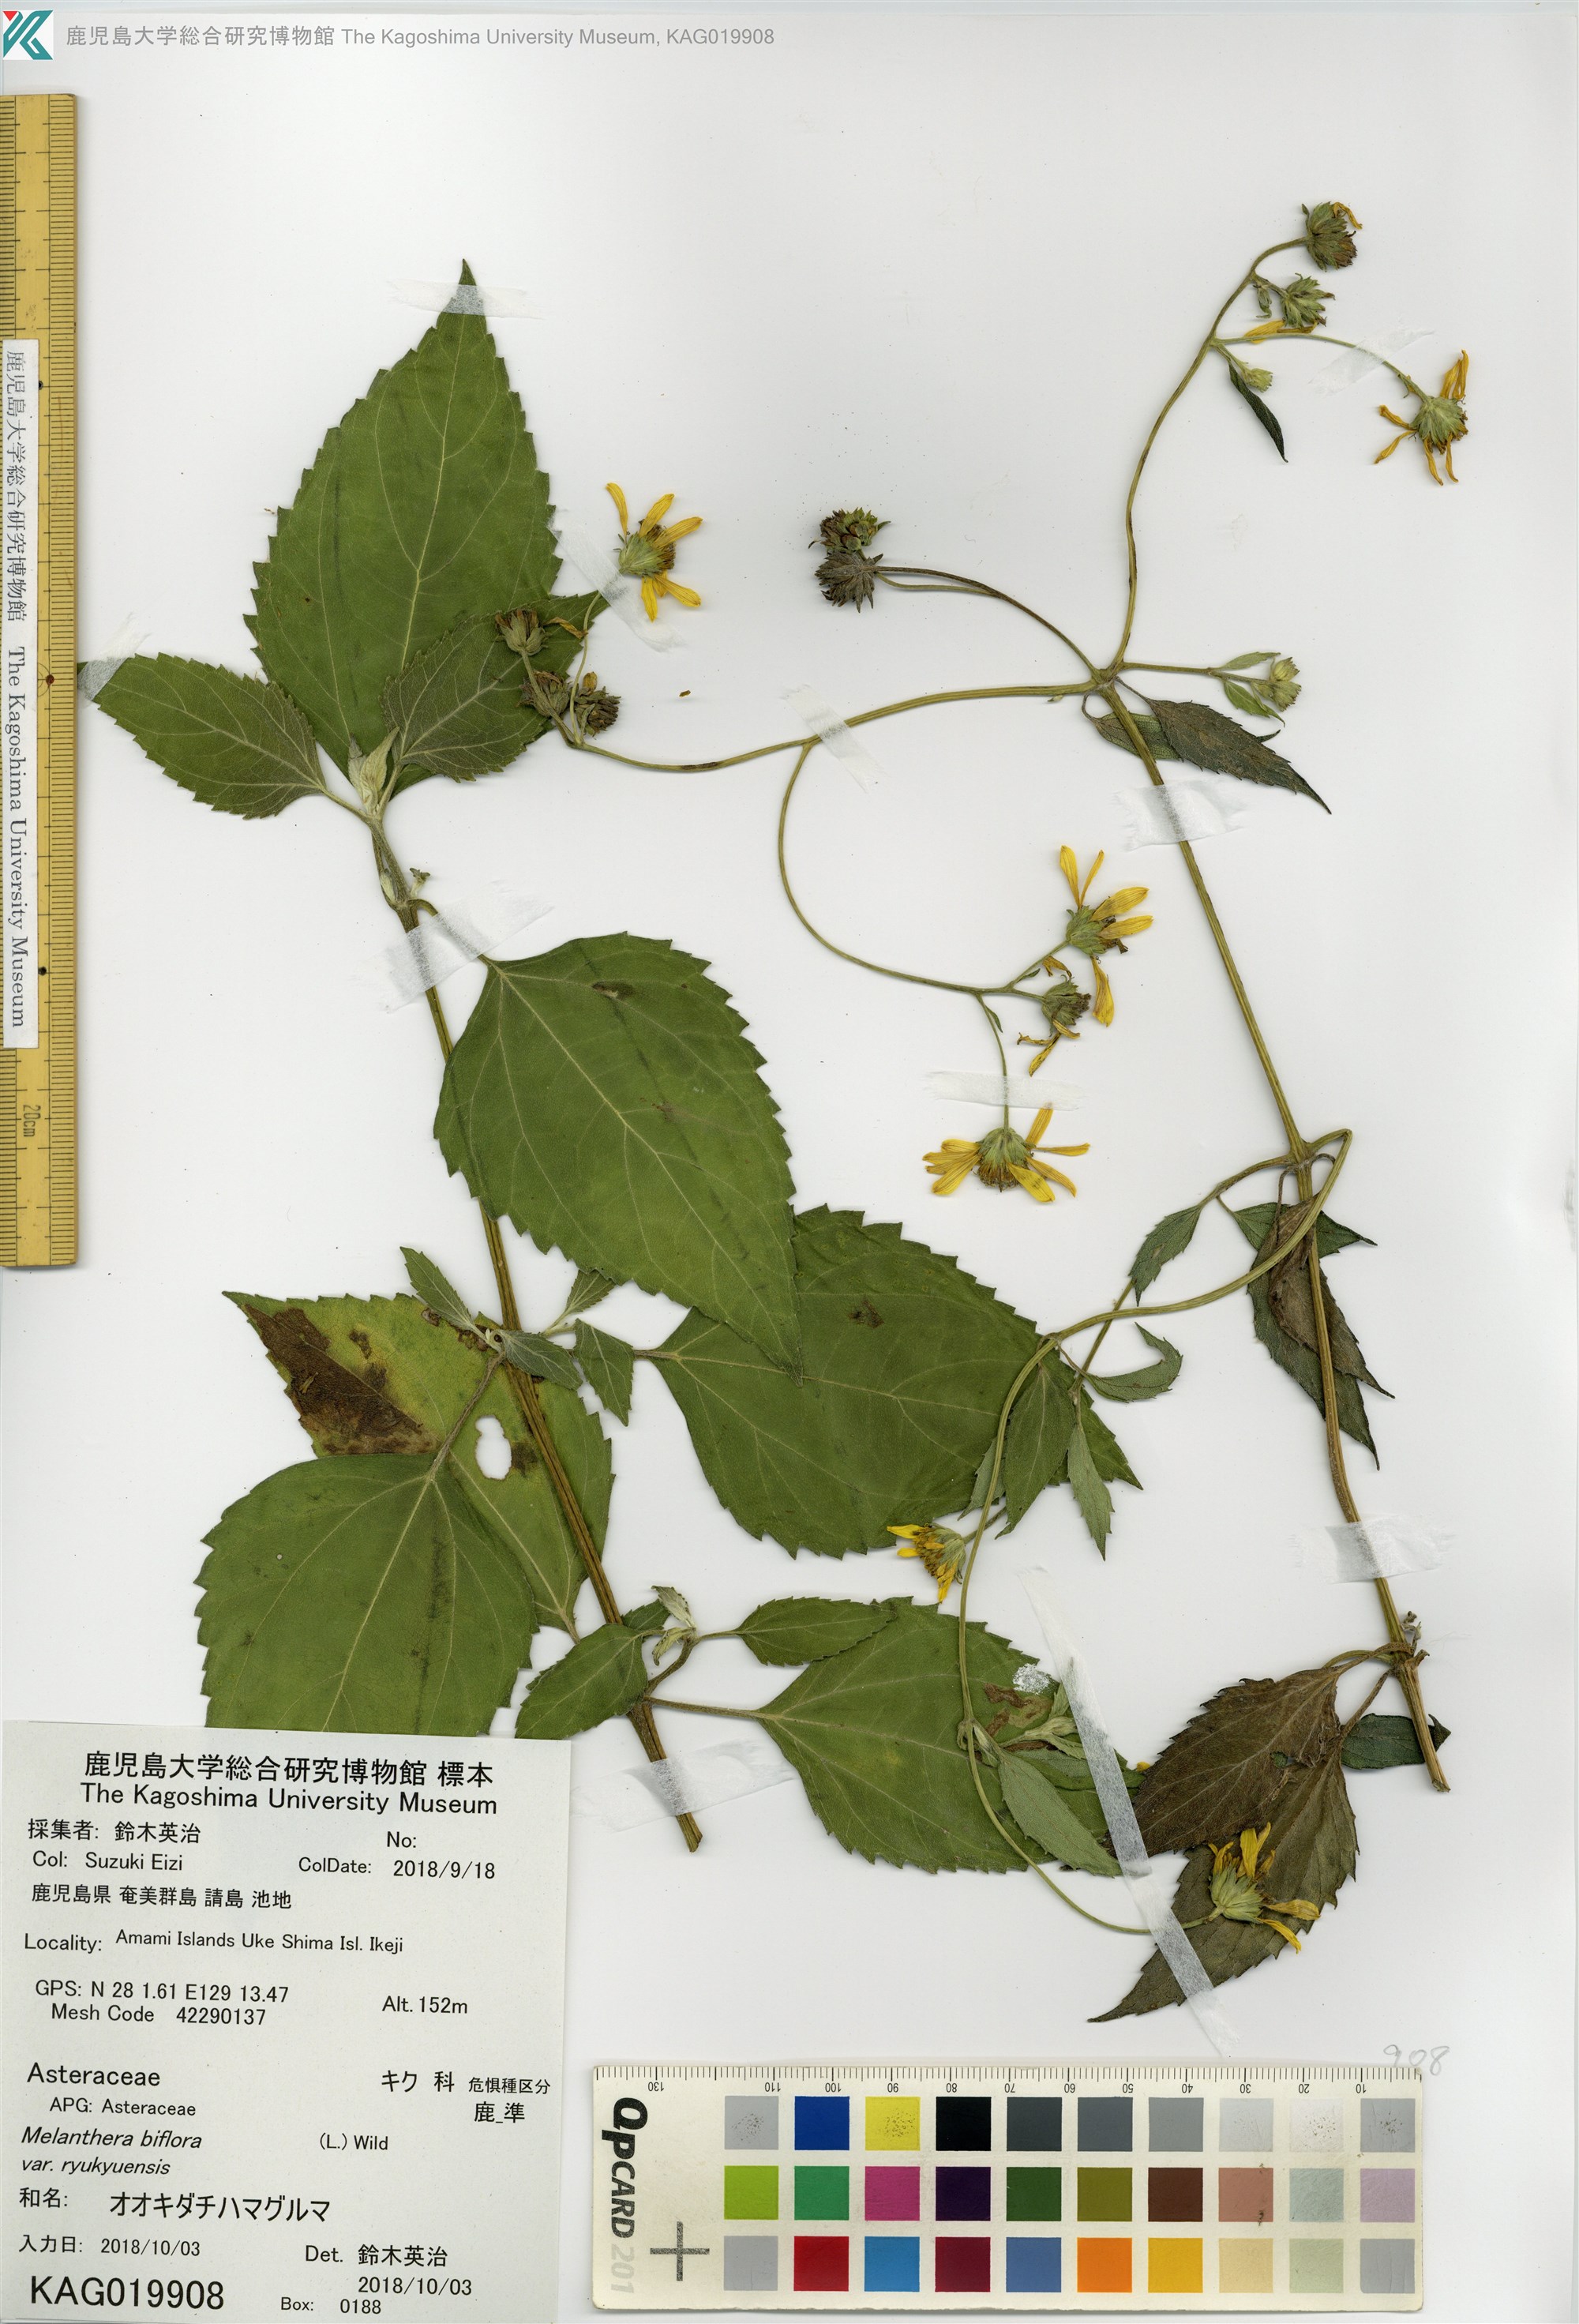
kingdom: Plantae
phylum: Tracheophyta
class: Magnoliopsida
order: Asterales
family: Asteraceae
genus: Wollastonia
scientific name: Wollastonia biflora
